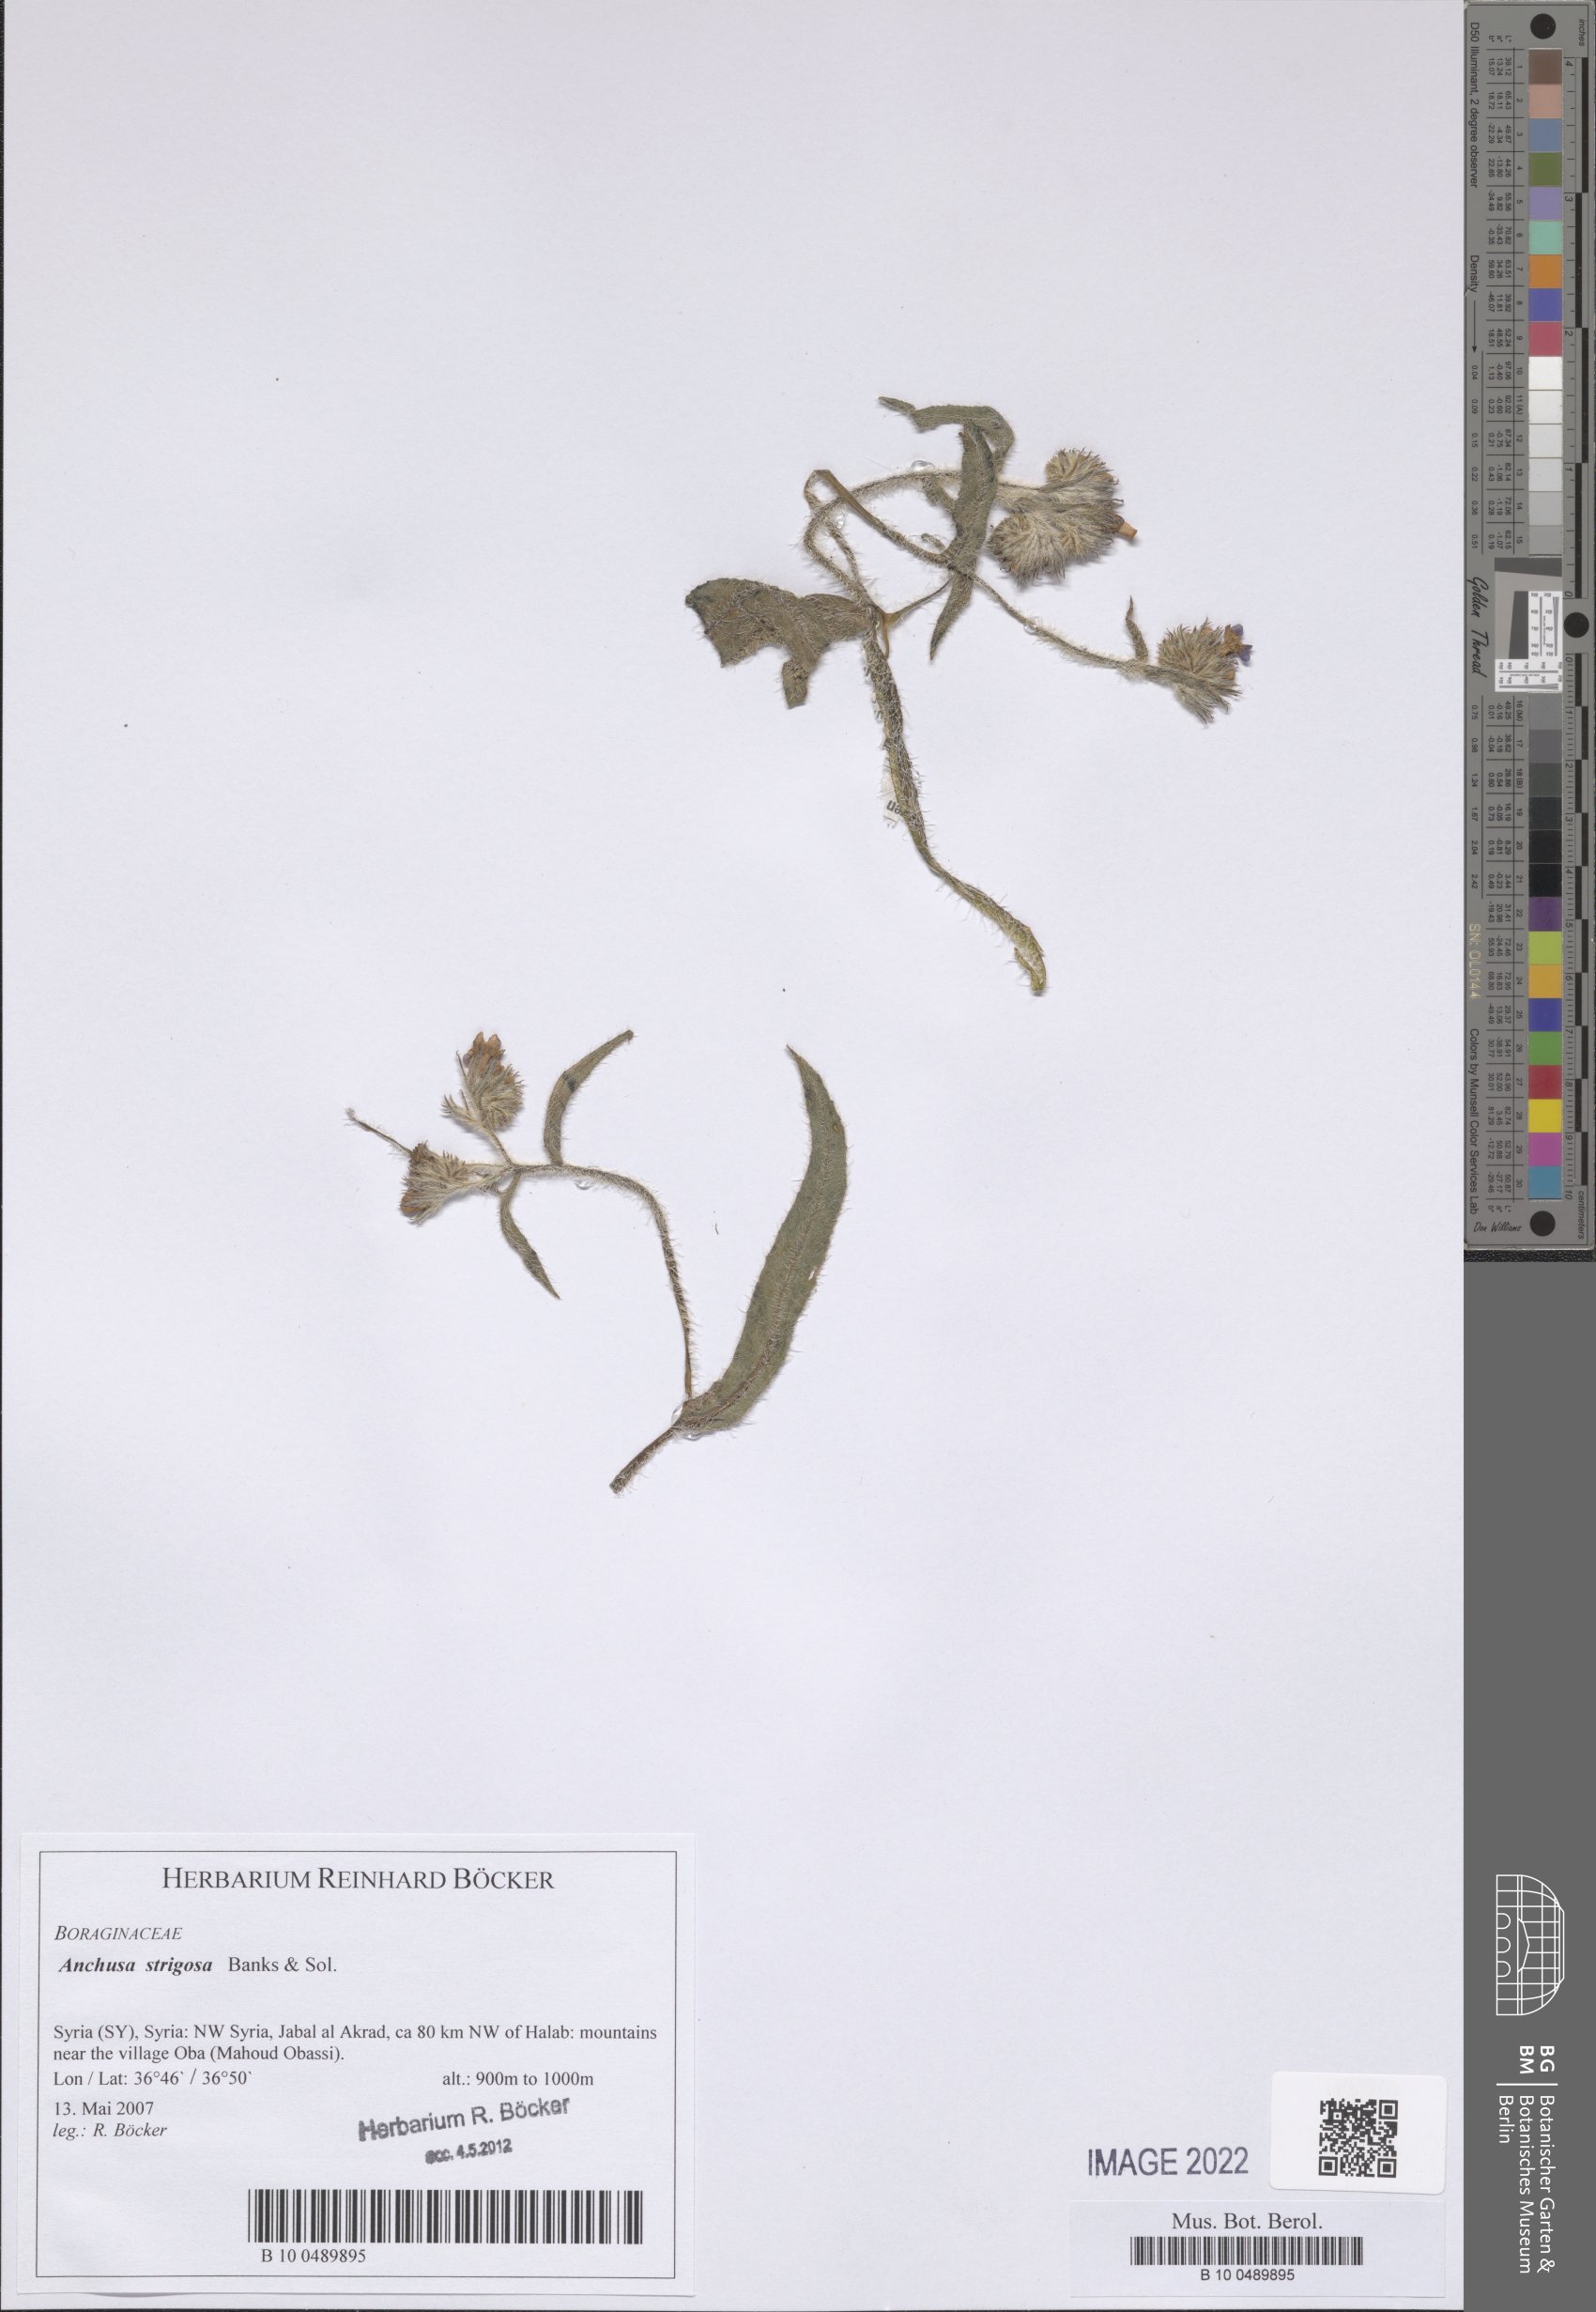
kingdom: Plantae
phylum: Tracheophyta
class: Magnoliopsida
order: Boraginales
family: Boraginaceae
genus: Anchusa
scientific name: Anchusa strigosa
